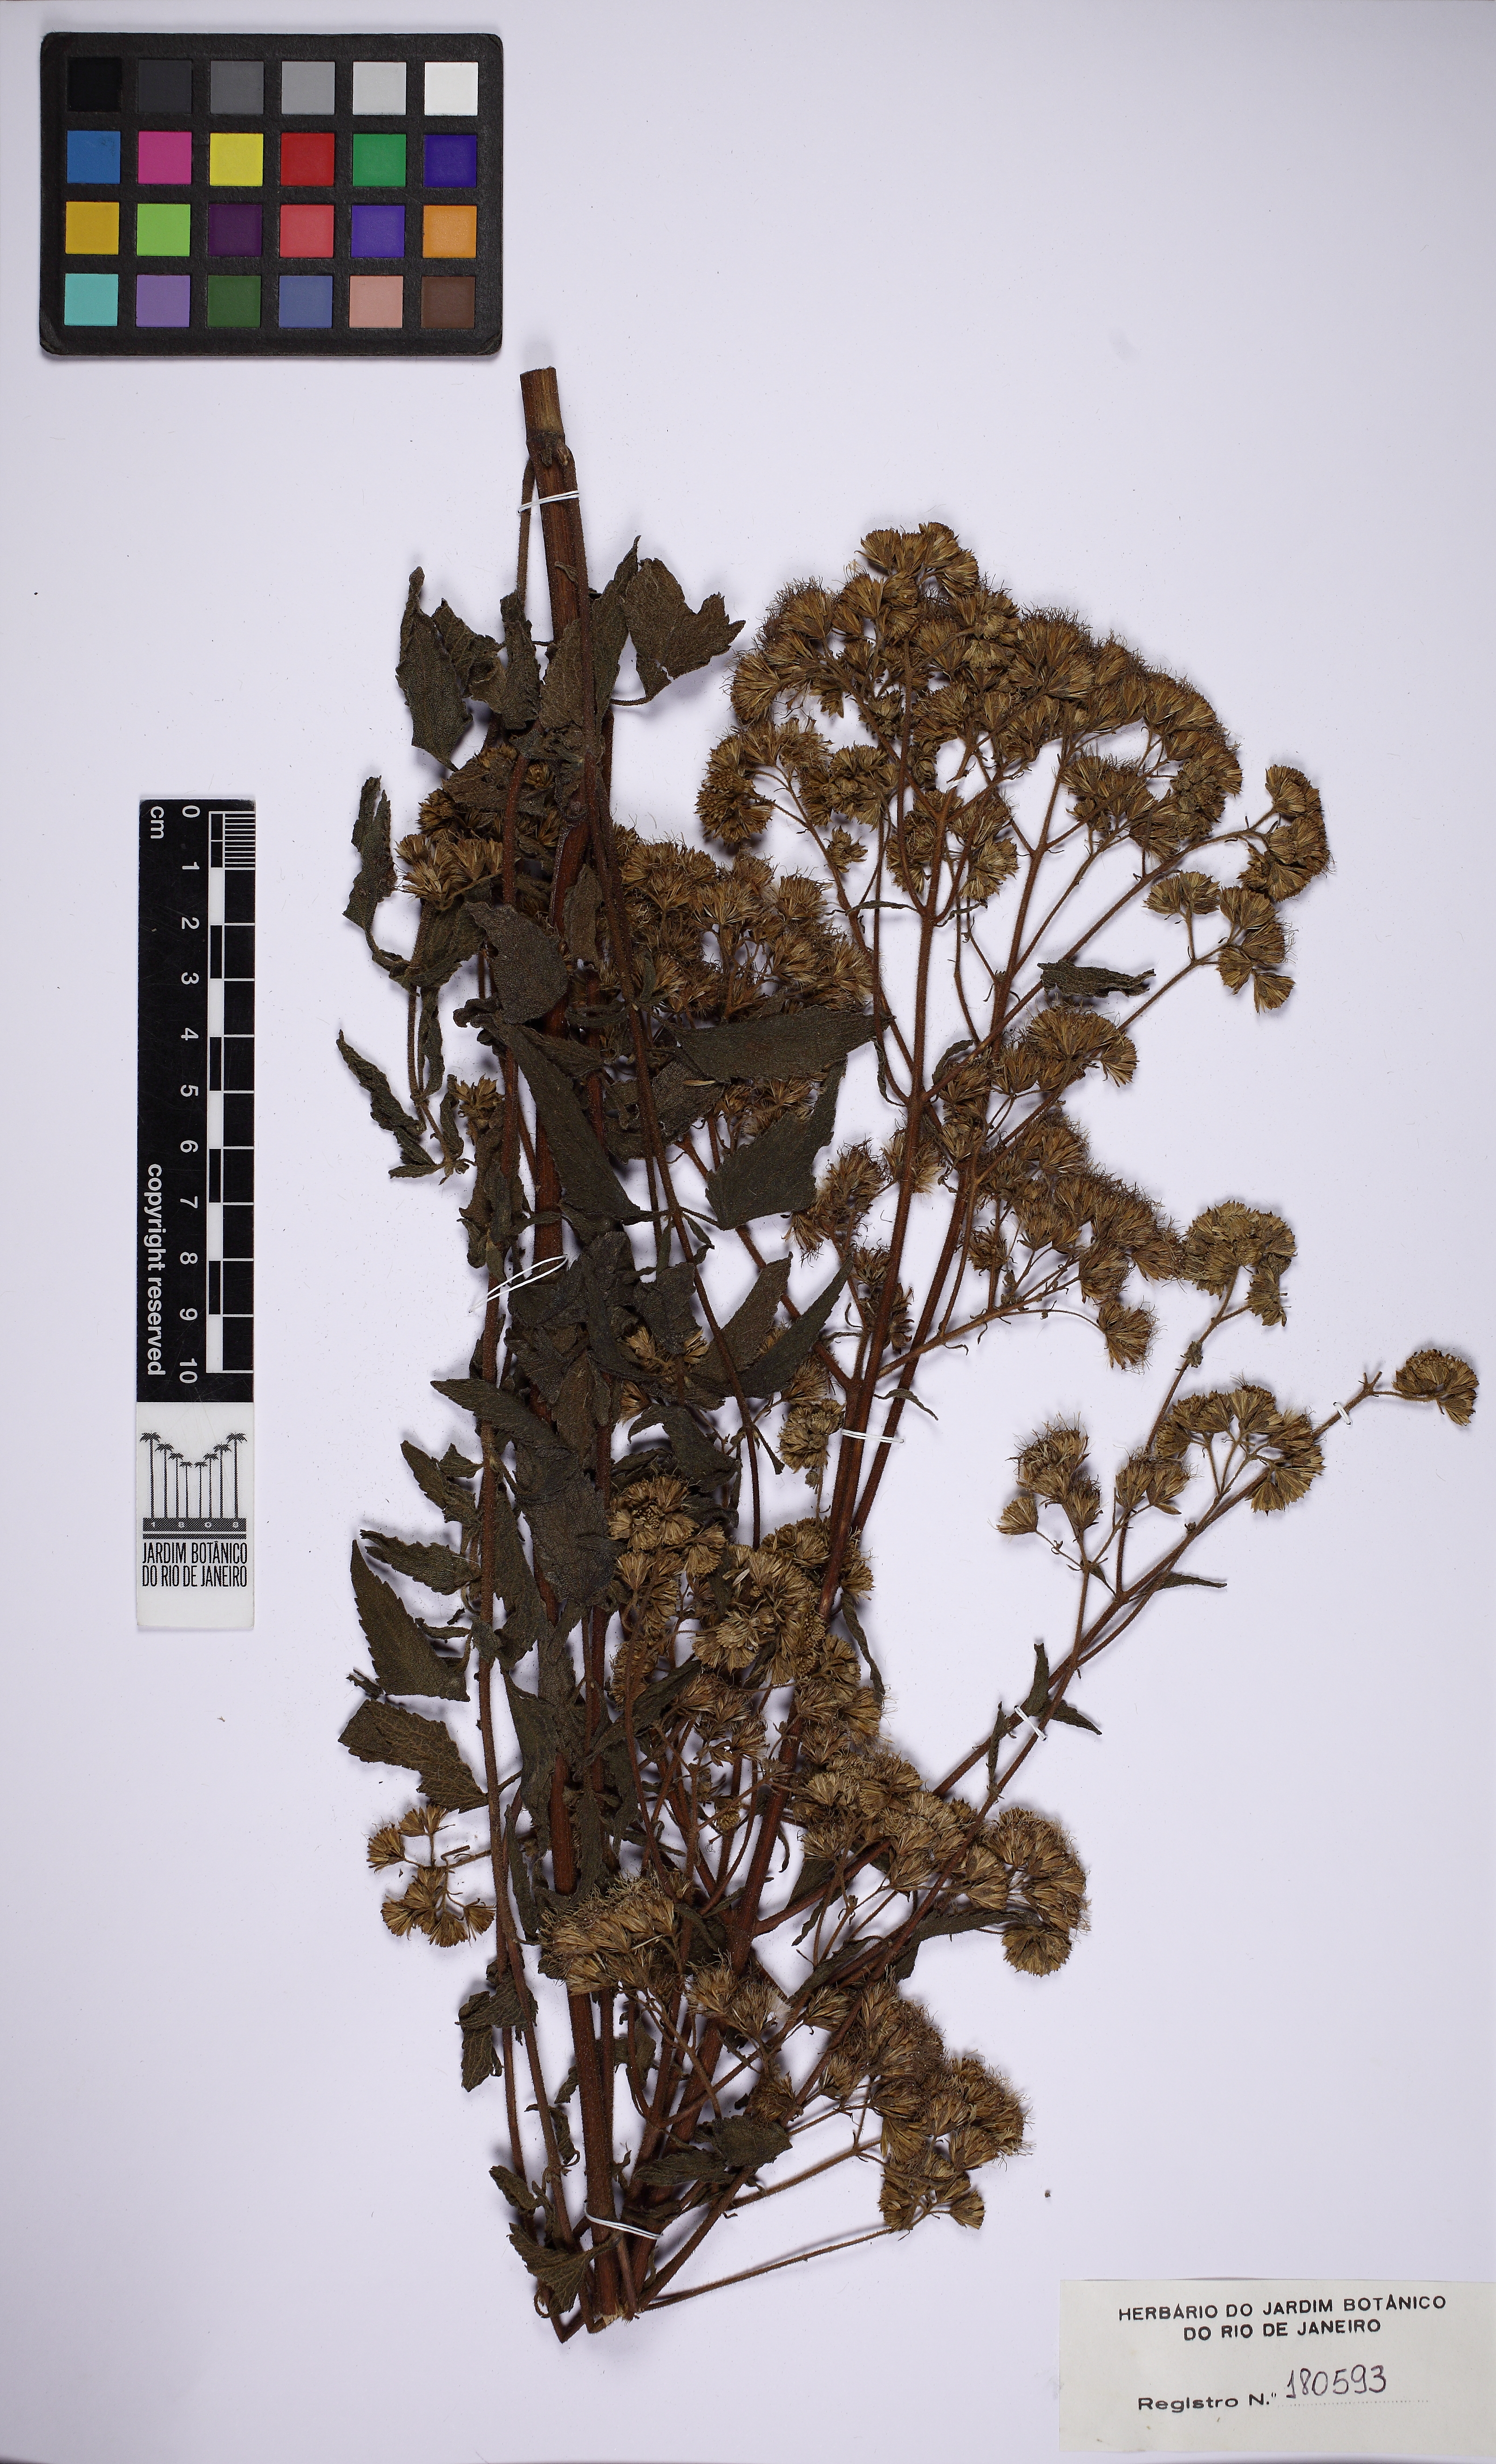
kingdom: Plantae
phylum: Tracheophyta
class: Magnoliopsida
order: Asterales
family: Asteraceae
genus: Campuloclinium
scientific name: Campuloclinium purpurascens
